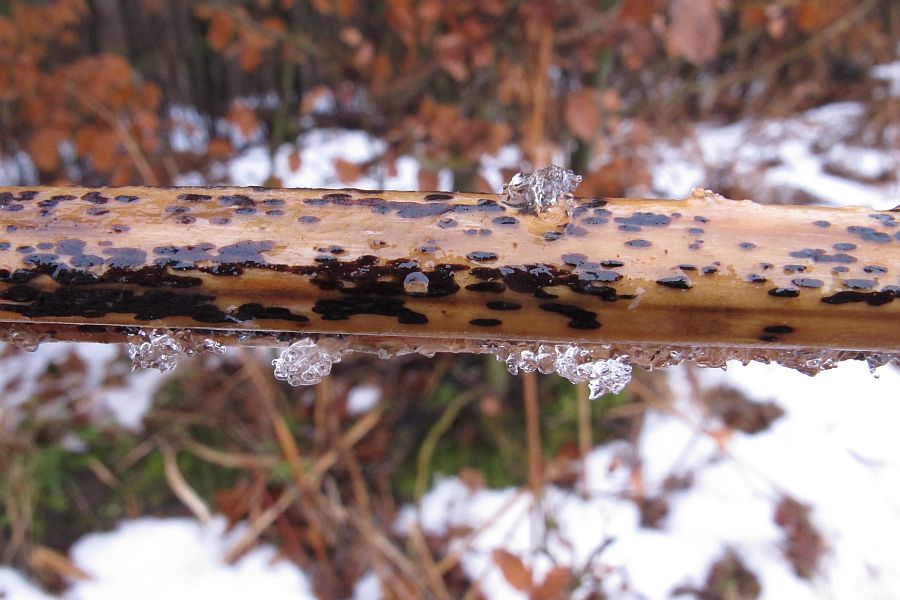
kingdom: Fungi
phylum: Ascomycota
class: Dothideomycetes
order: Pleosporales
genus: Rhopographus
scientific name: Rhopographus filicinus
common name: Bracken map
